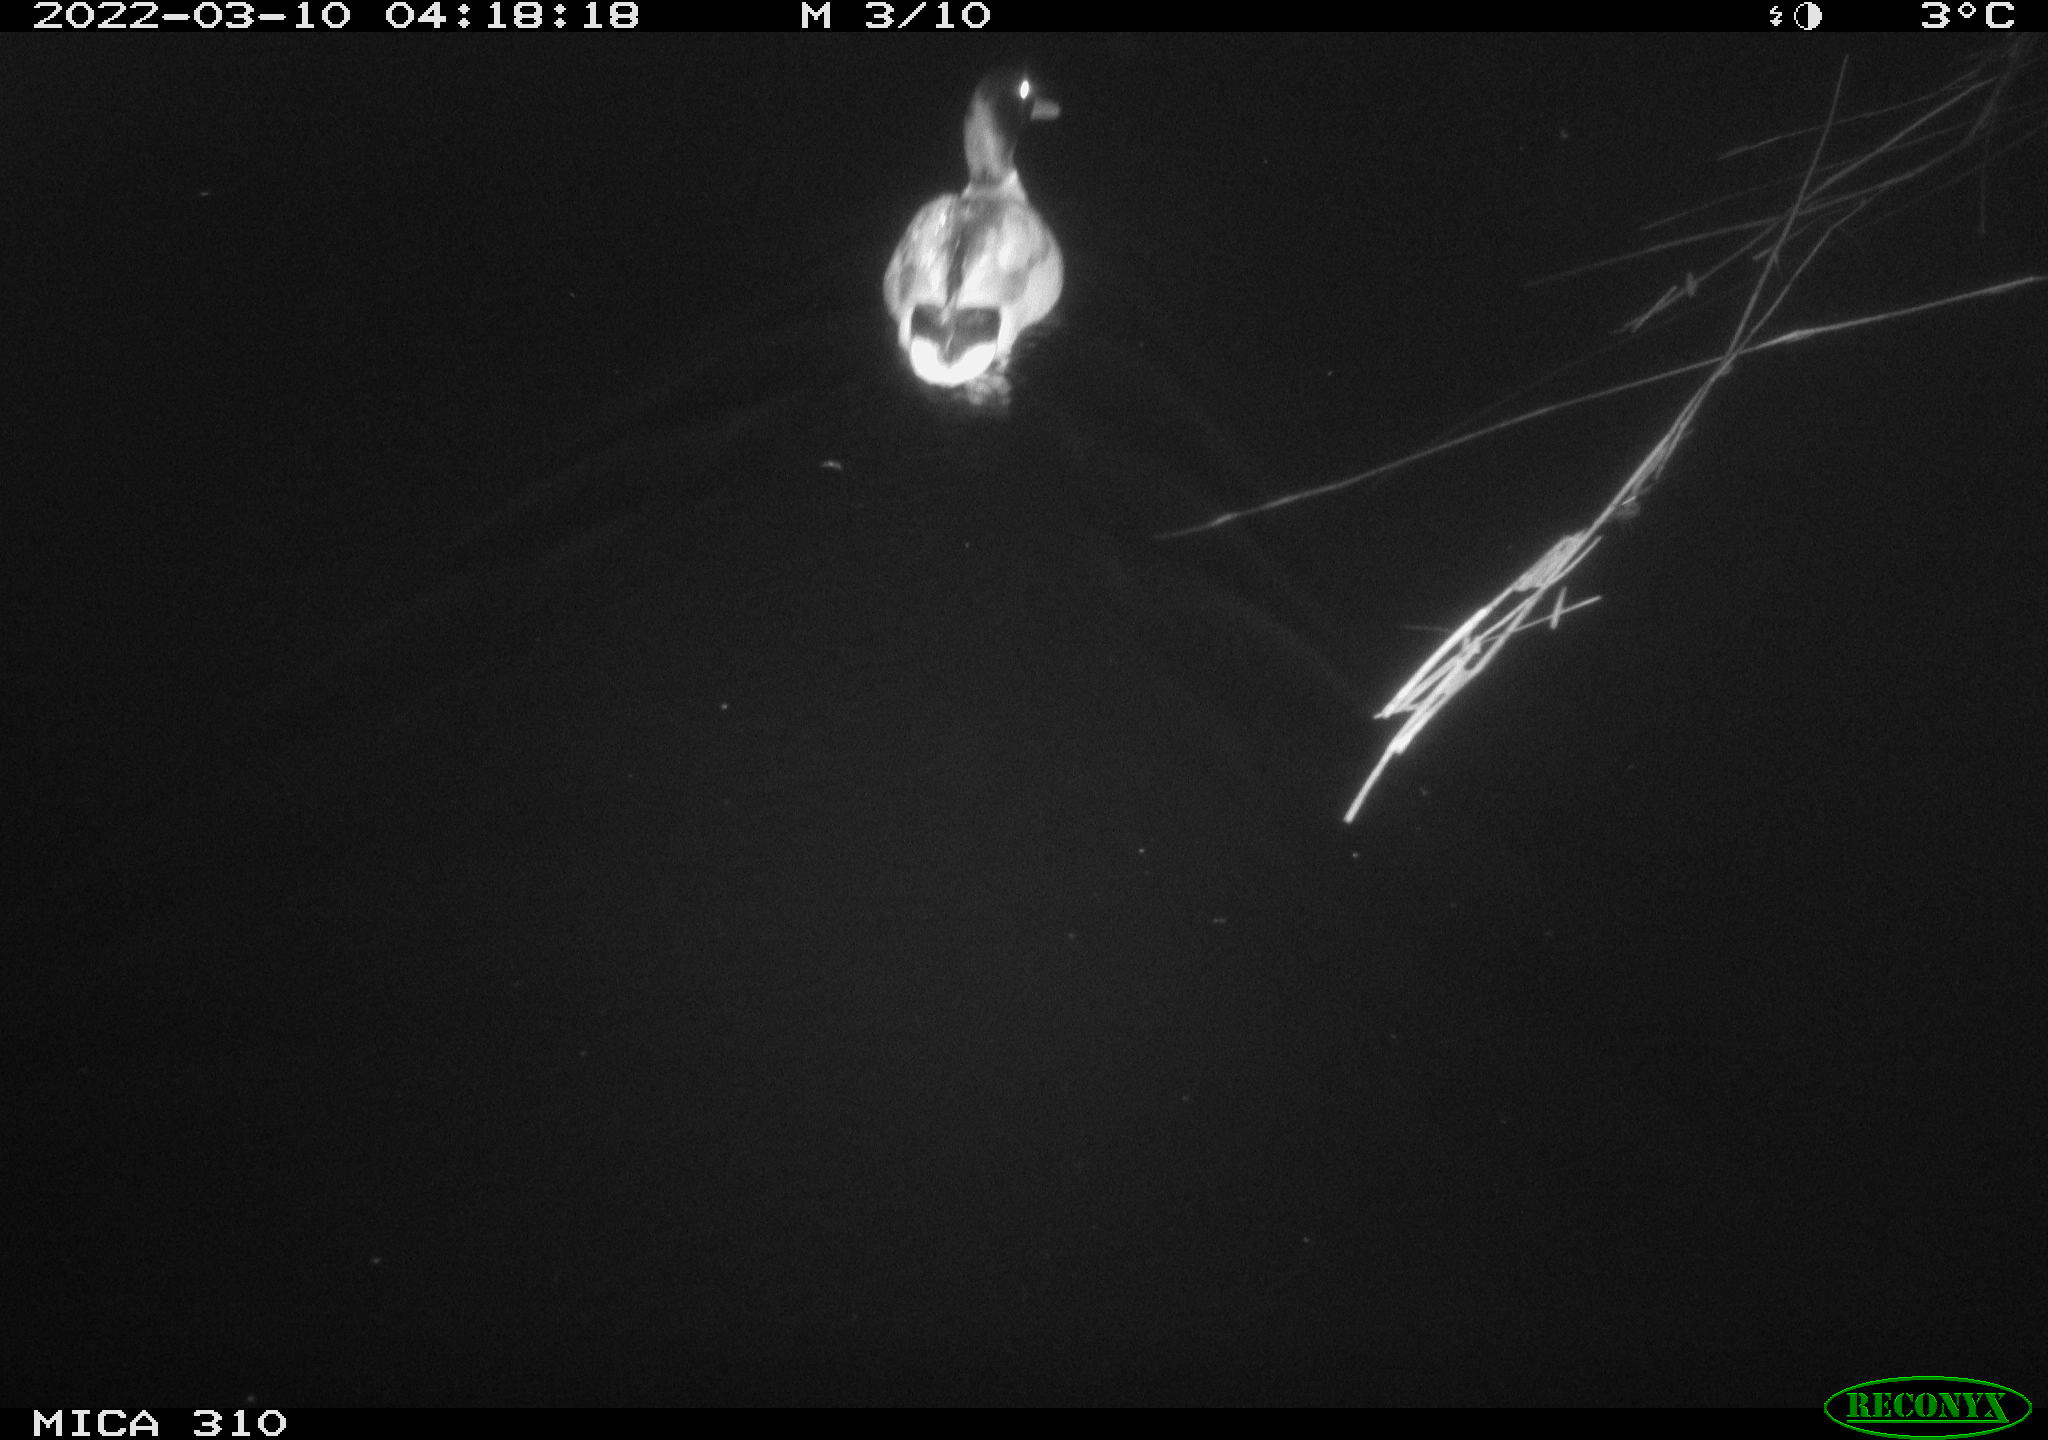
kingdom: Animalia
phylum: Chordata
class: Aves
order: Anseriformes
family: Anatidae
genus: Anas
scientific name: Anas platyrhynchos
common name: Mallard
